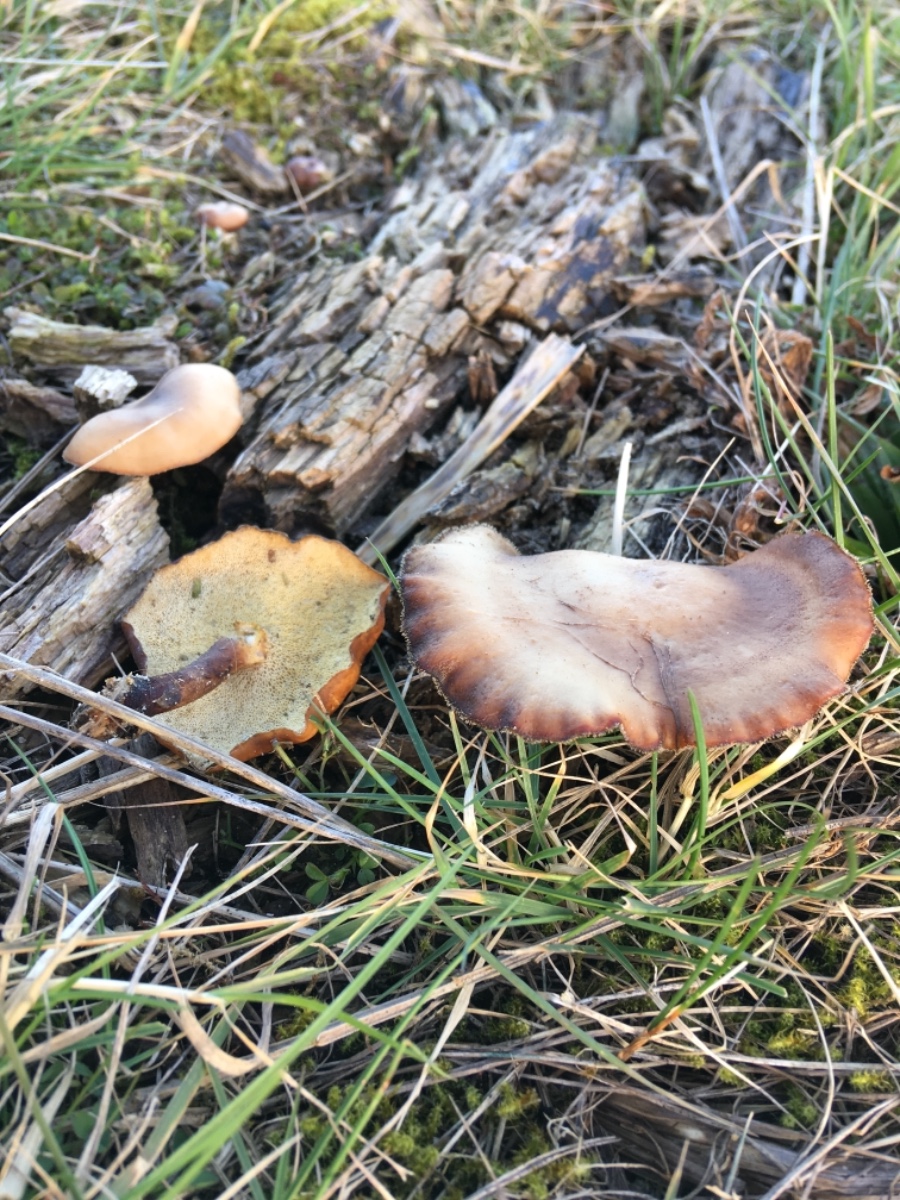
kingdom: Fungi
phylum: Basidiomycota
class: Agaricomycetes
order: Polyporales
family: Polyporaceae
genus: Lentinus
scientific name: Lentinus brumalis
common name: vinter-stilkporesvamp
